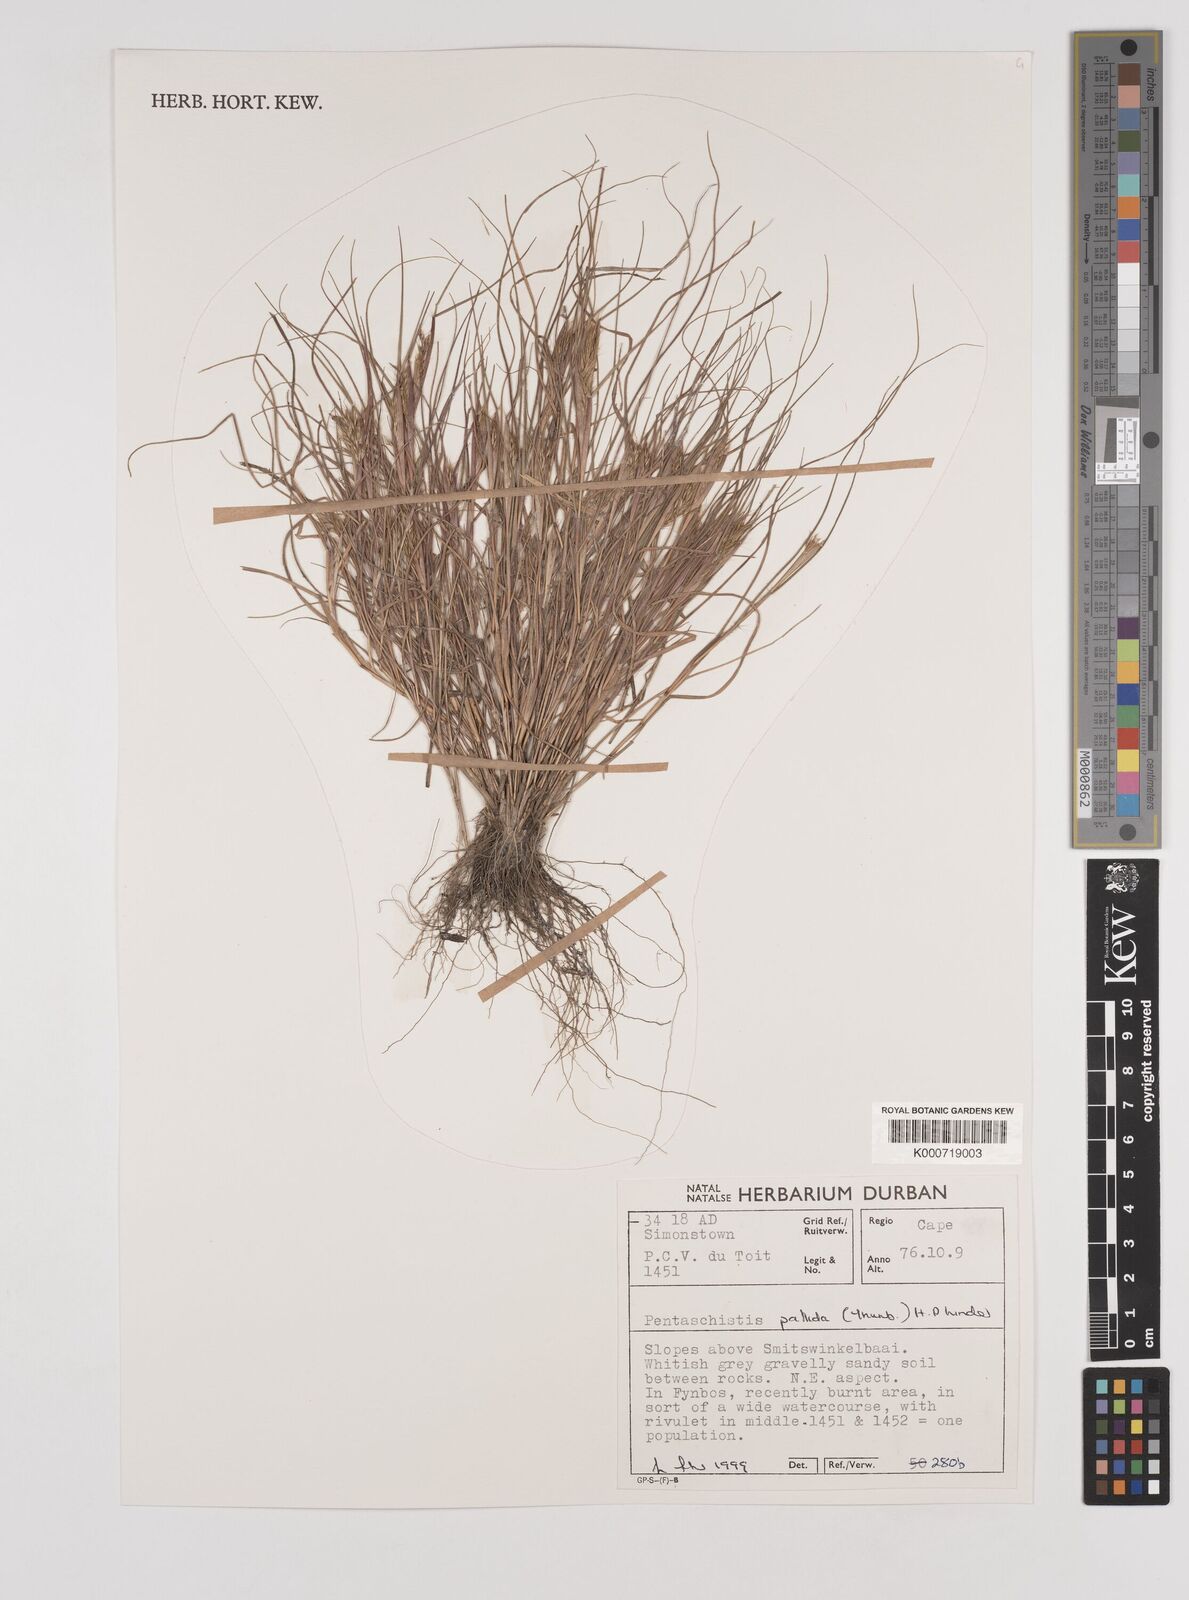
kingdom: Plantae
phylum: Tracheophyta
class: Liliopsida
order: Poales
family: Poaceae
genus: Pentameris
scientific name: Pentameris pallida
